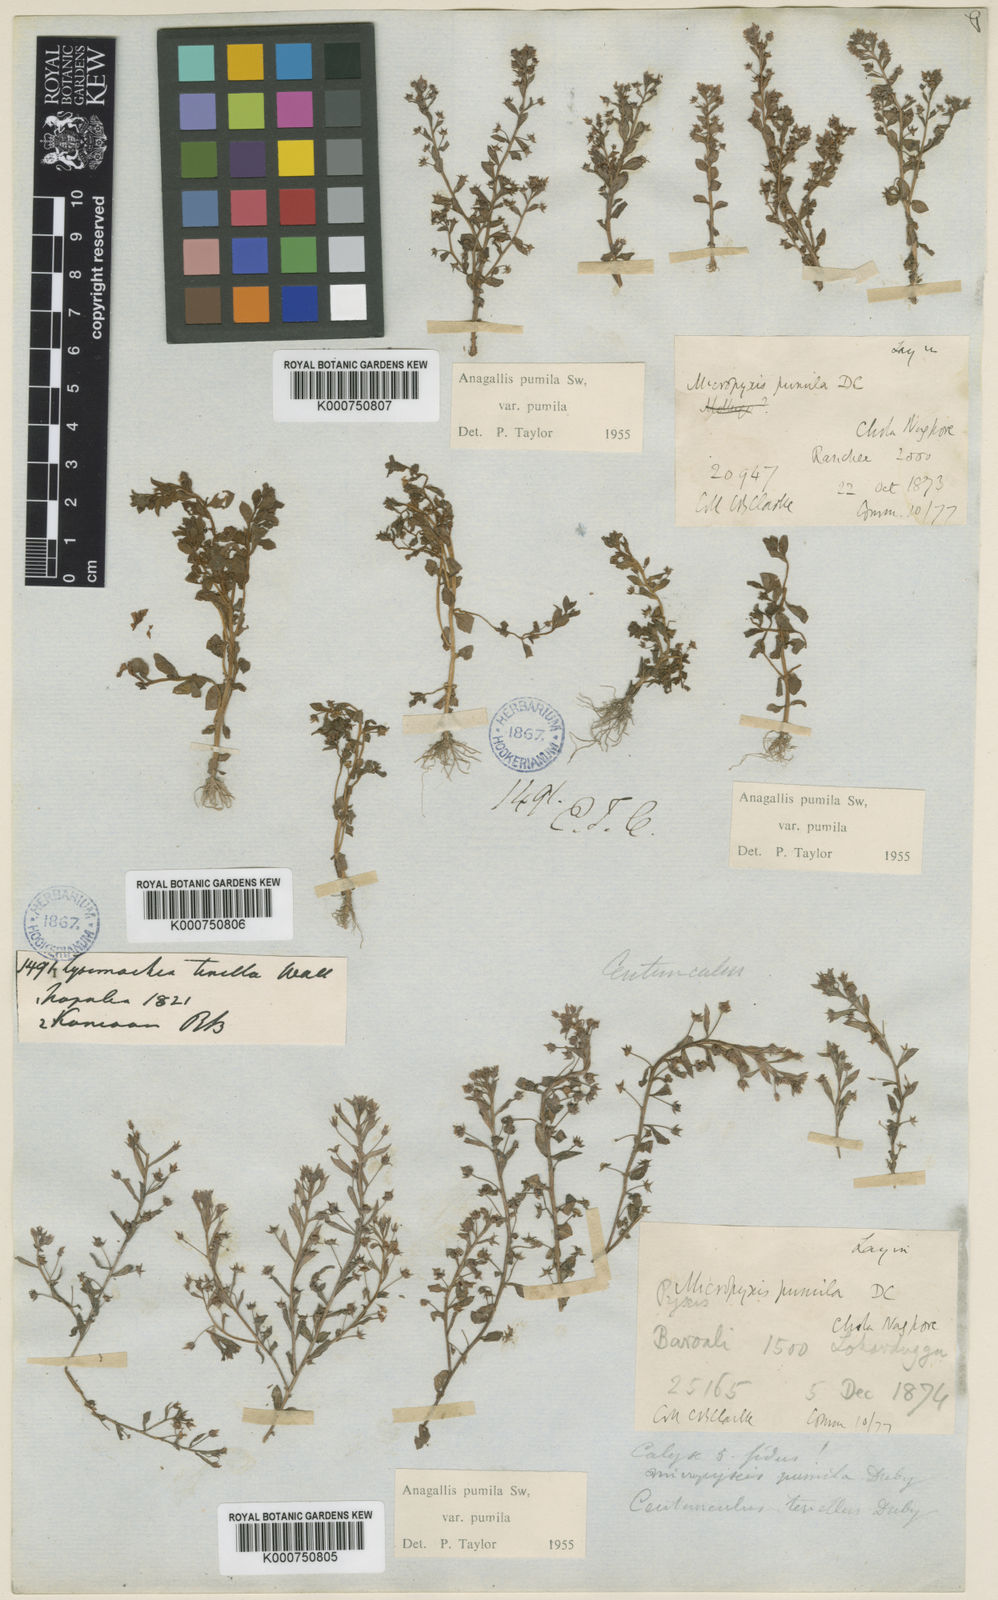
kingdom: Plantae
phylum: Tracheophyta
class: Magnoliopsida
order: Ericales
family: Primulaceae
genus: Lysimachia
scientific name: Lysimachia ovalis
